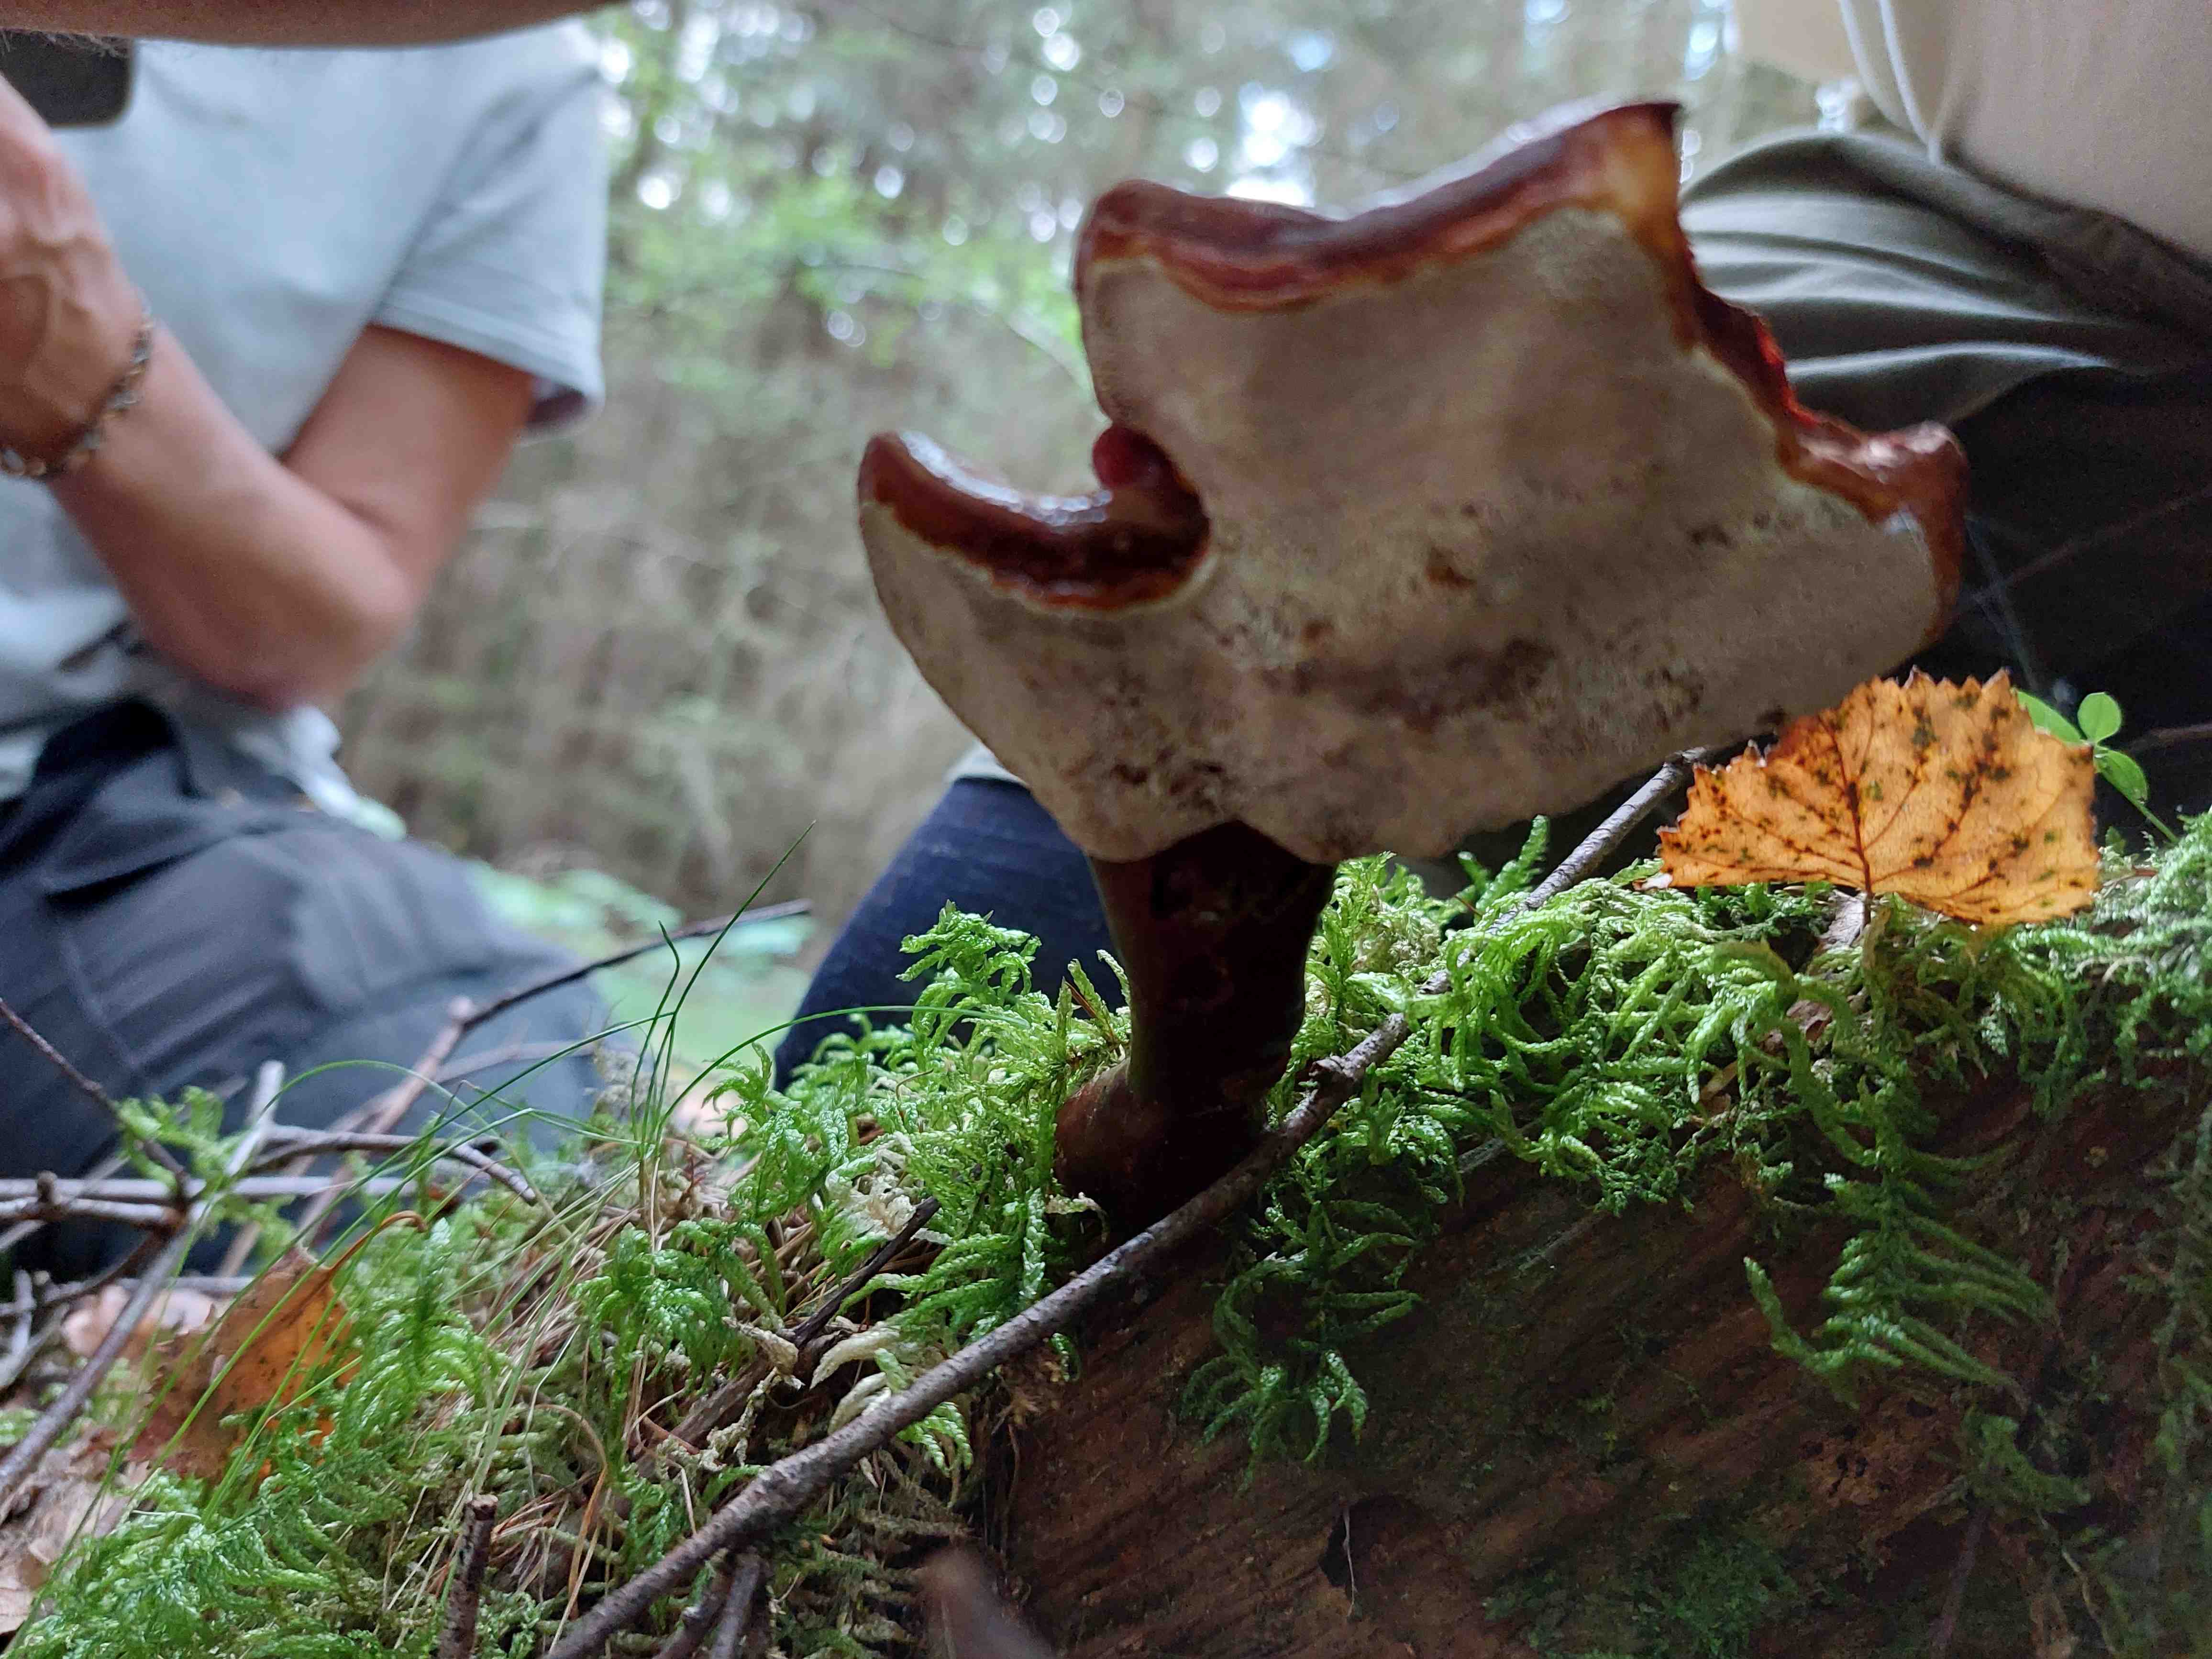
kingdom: Fungi
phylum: Basidiomycota
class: Agaricomycetes
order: Polyporales
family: Polyporaceae
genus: Ganoderma
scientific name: Ganoderma lucidum
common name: skinnende lakporesvamp
